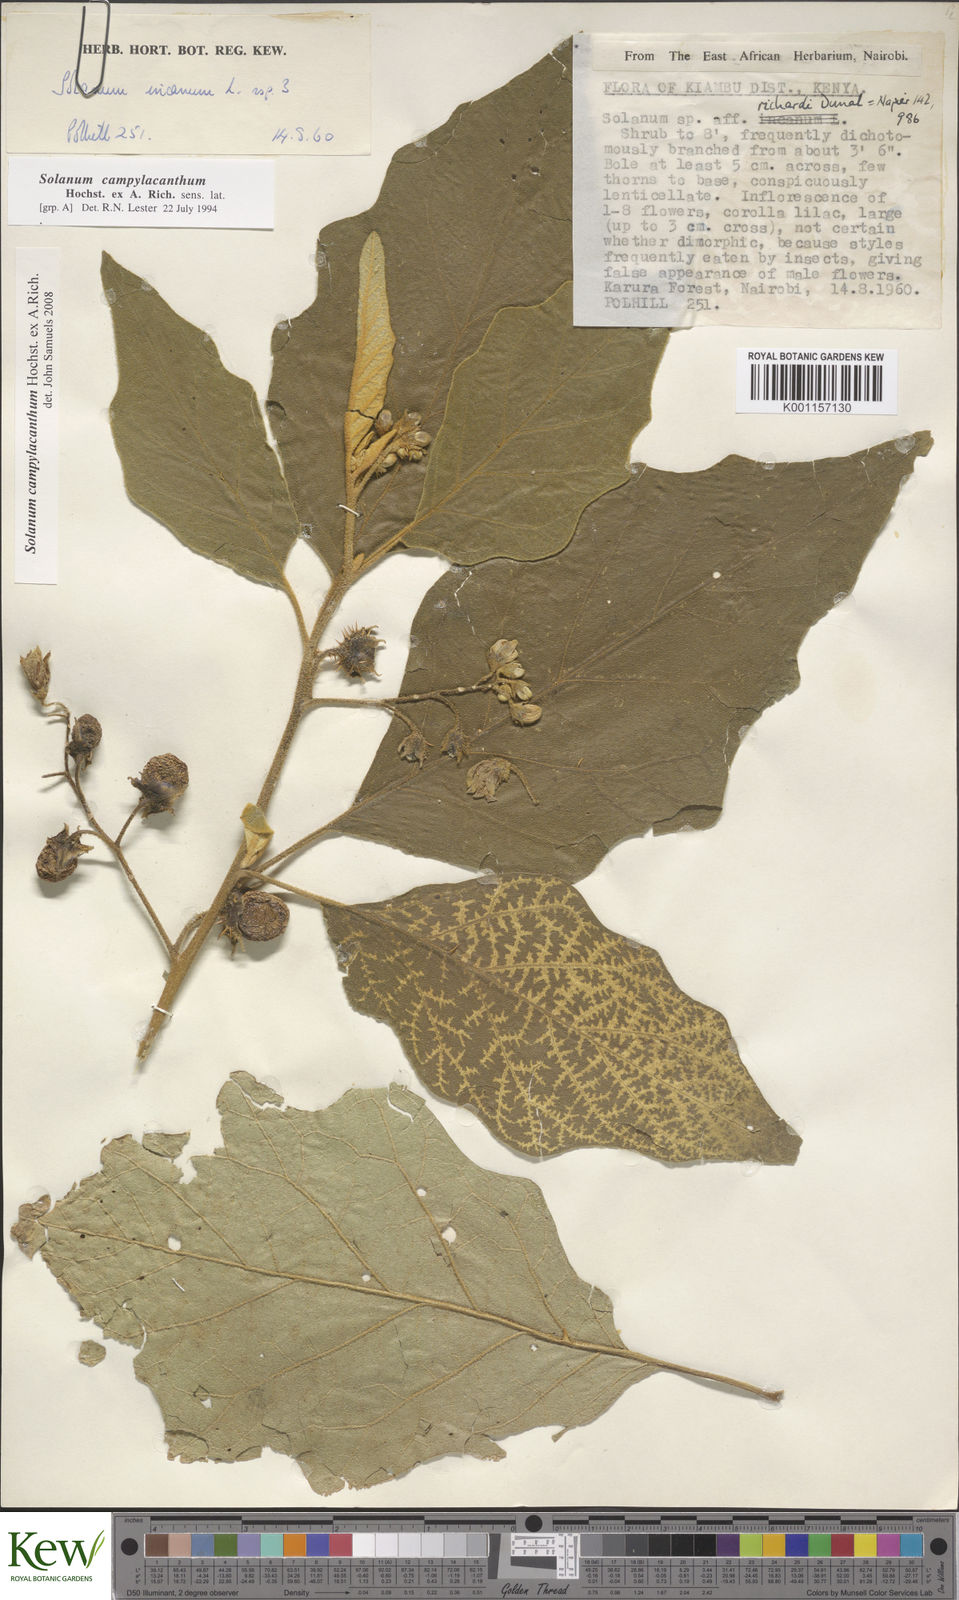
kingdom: Plantae
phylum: Tracheophyta
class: Magnoliopsida
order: Solanales
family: Solanaceae
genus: Solanum
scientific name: Solanum campylacanthum
